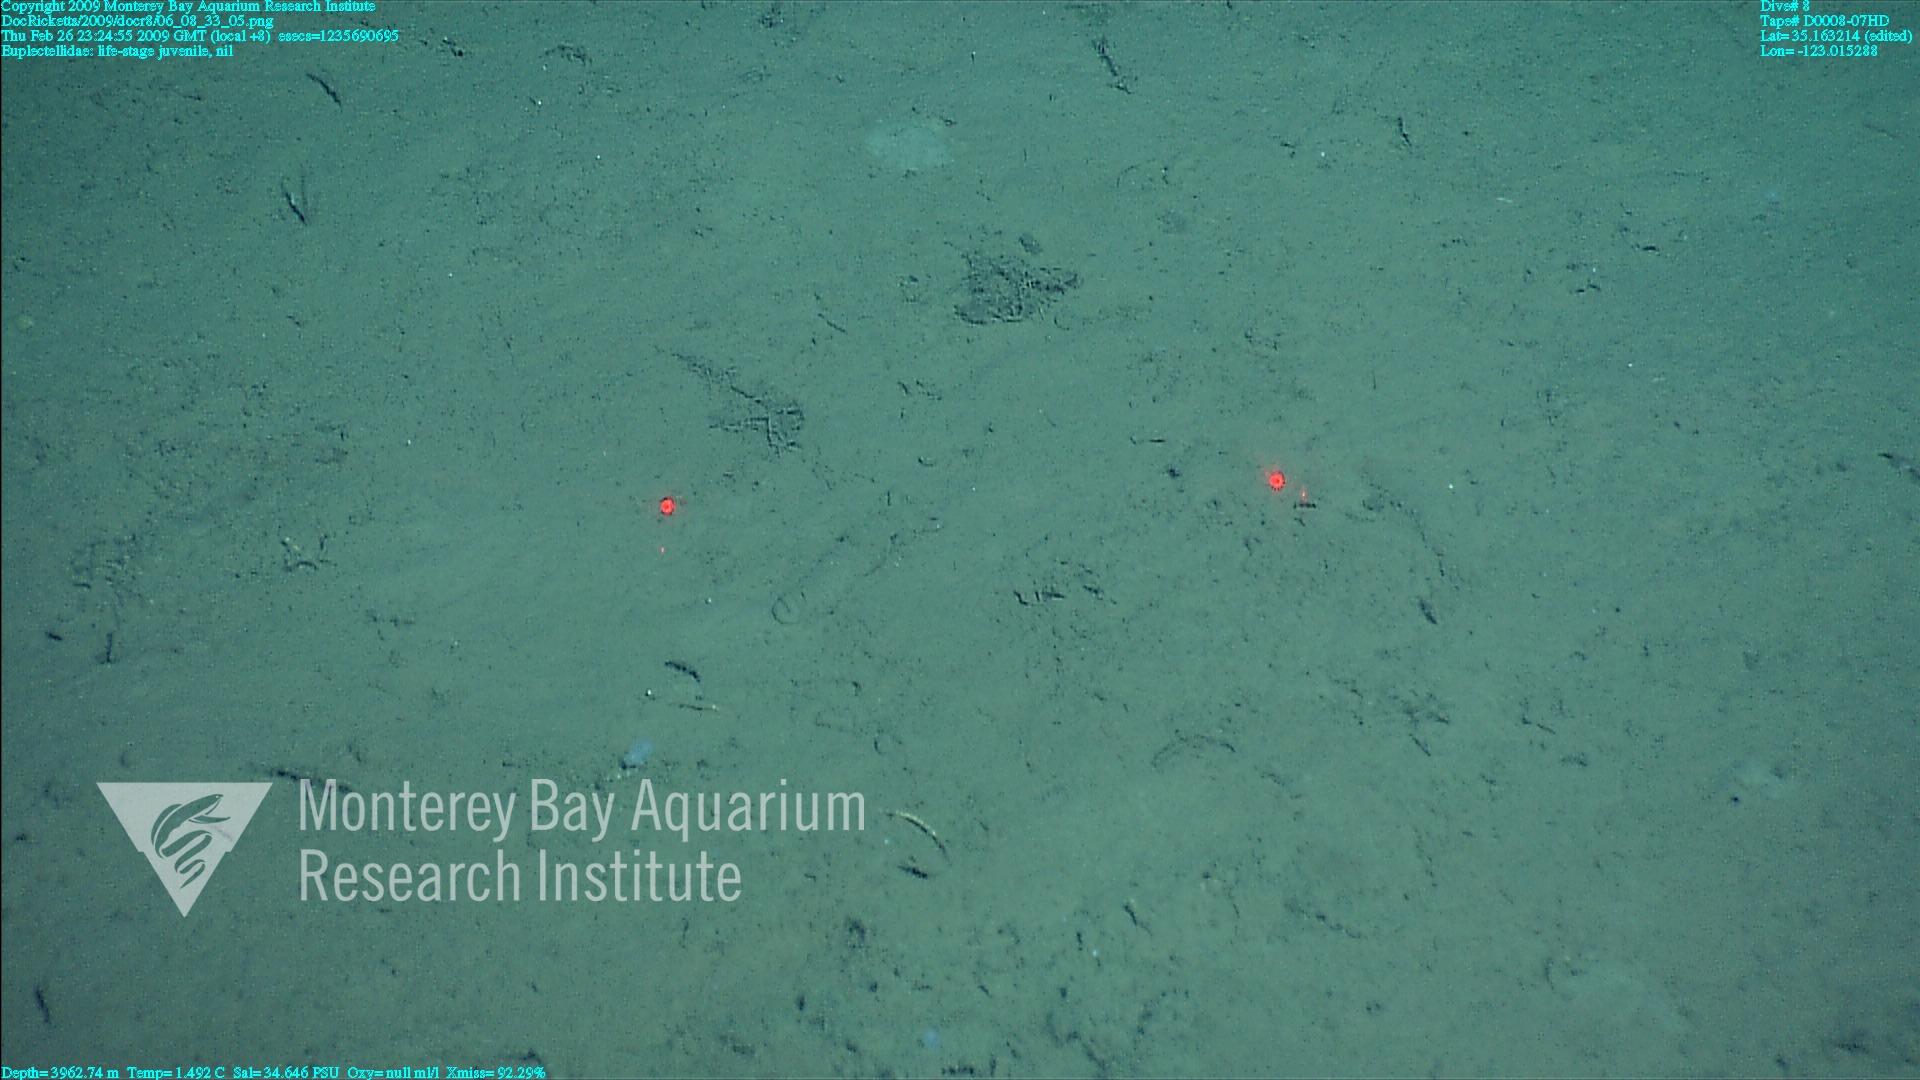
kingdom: Animalia
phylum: Porifera
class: Hexactinellida
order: Lyssacinosida
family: Euplectellidae
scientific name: Euplectellidae
